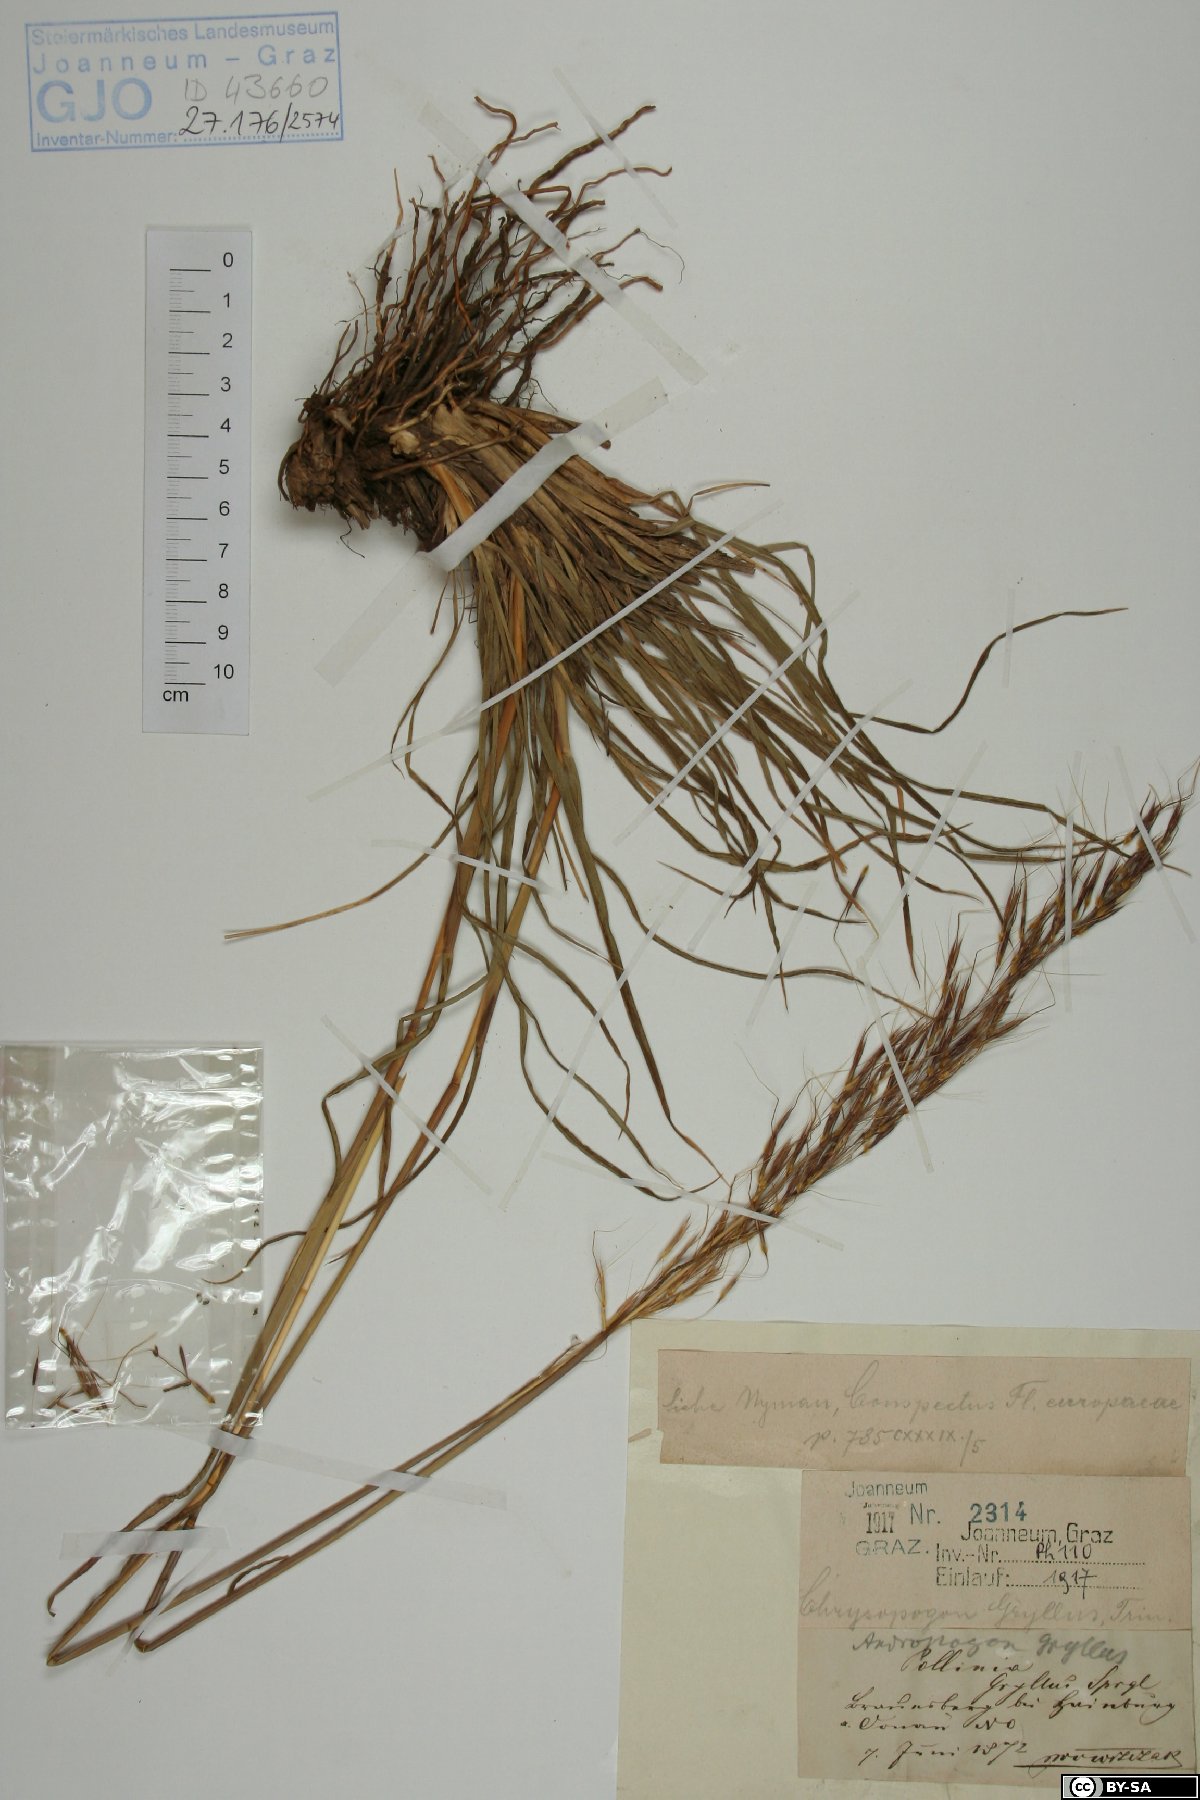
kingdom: Plantae
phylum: Tracheophyta
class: Liliopsida
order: Poales
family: Poaceae
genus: Chrysopogon
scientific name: Chrysopogon gryllus
